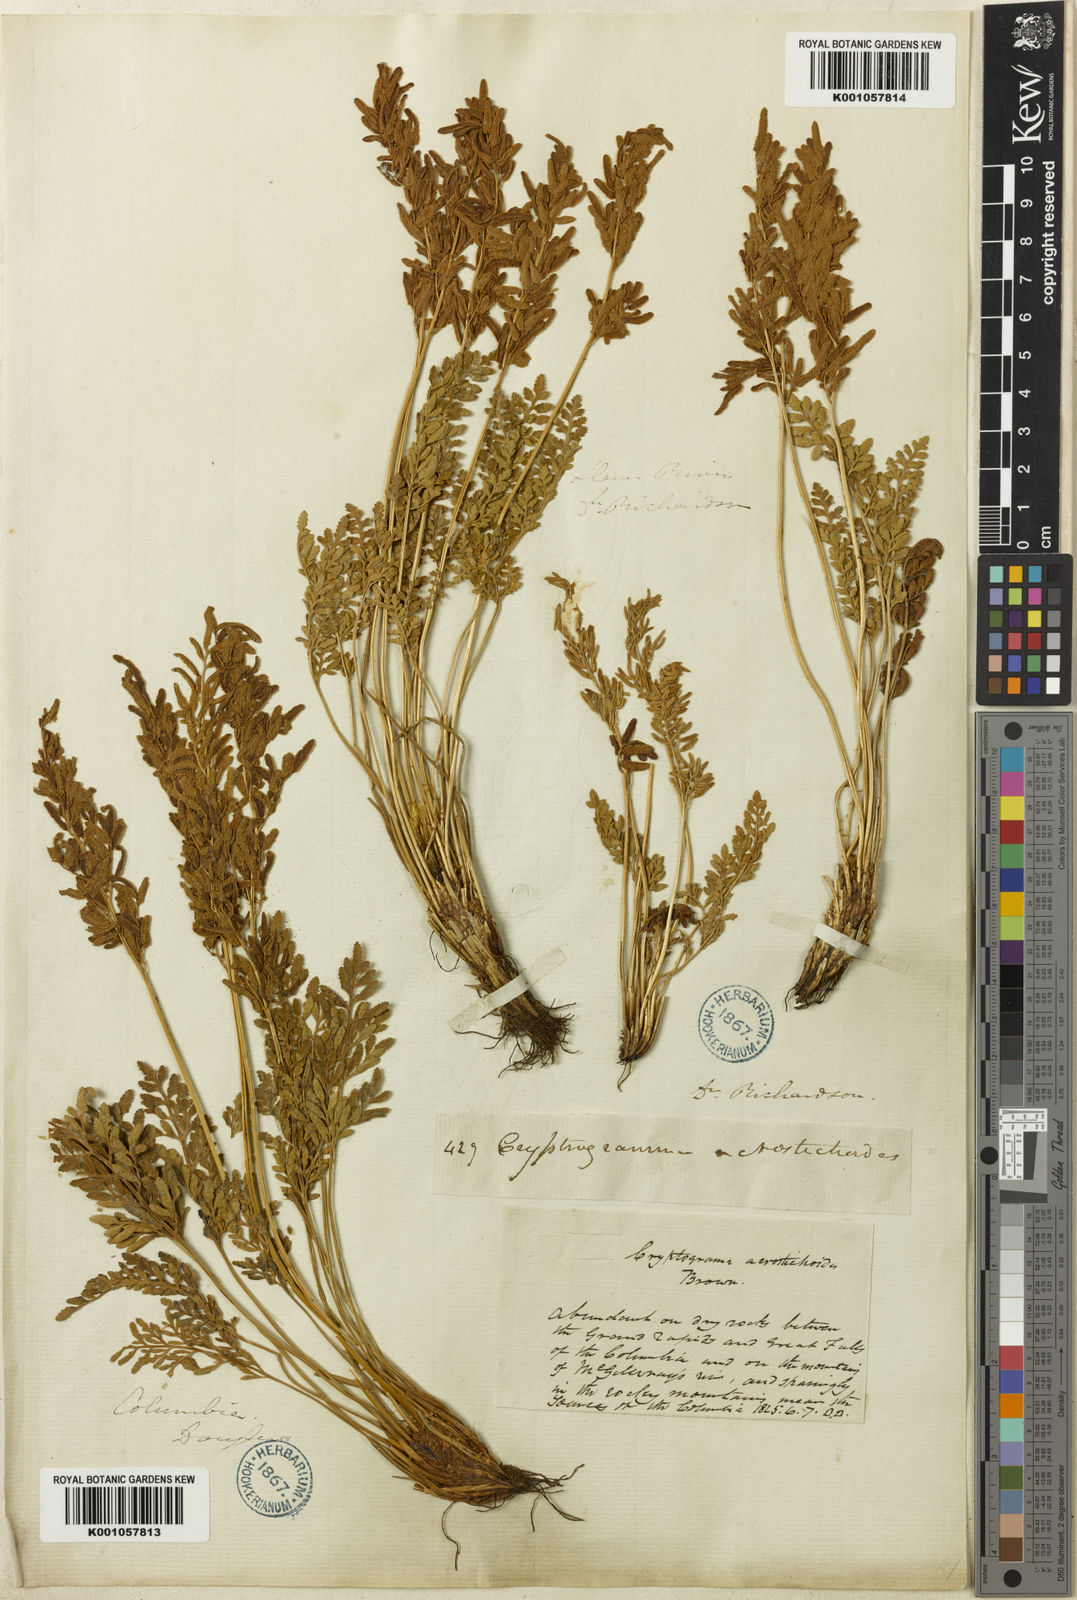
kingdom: Plantae
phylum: Tracheophyta
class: Polypodiopsida
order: Polypodiales
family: Pteridaceae
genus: Cryptogramma
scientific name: Cryptogramma acrostichoides
